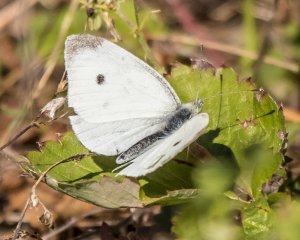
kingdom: Animalia
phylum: Arthropoda
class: Insecta
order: Lepidoptera
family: Pieridae
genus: Pieris
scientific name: Pieris rapae
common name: Cabbage White
